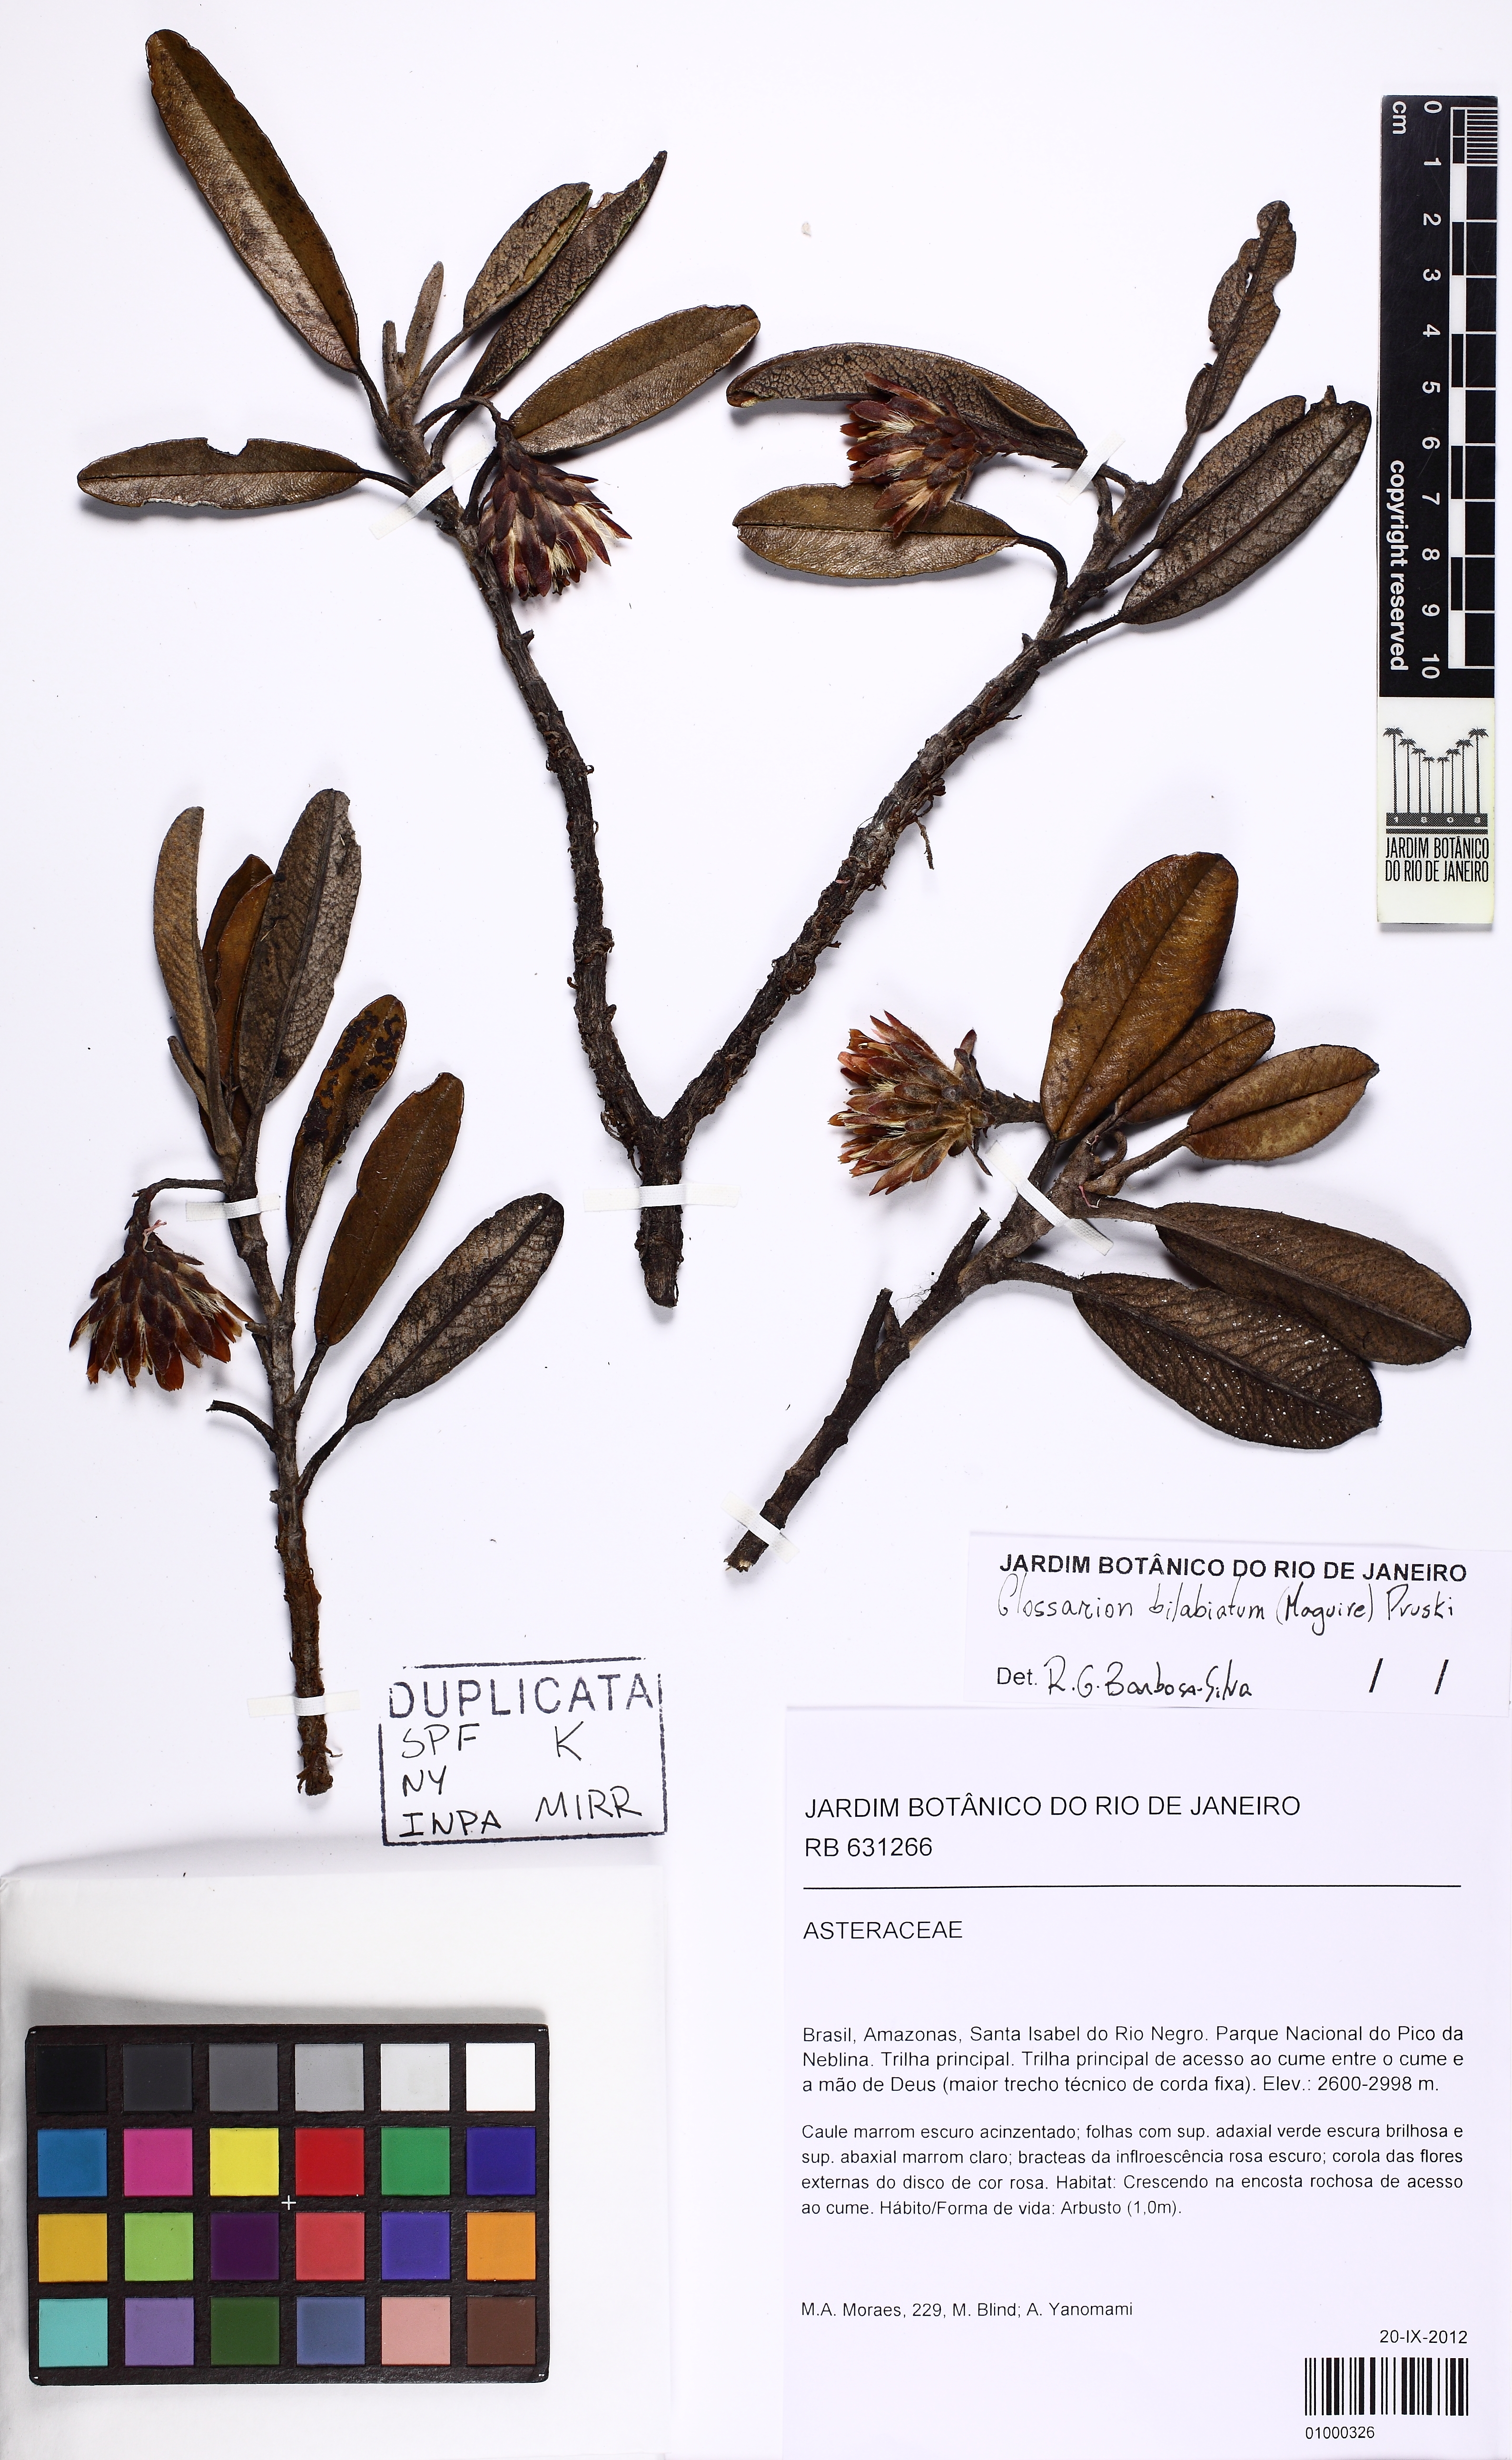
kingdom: Plantae
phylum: Tracheophyta
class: Magnoliopsida
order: Asterales
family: Asteraceae
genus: Glossarion
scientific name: Glossarion bilabiatum
